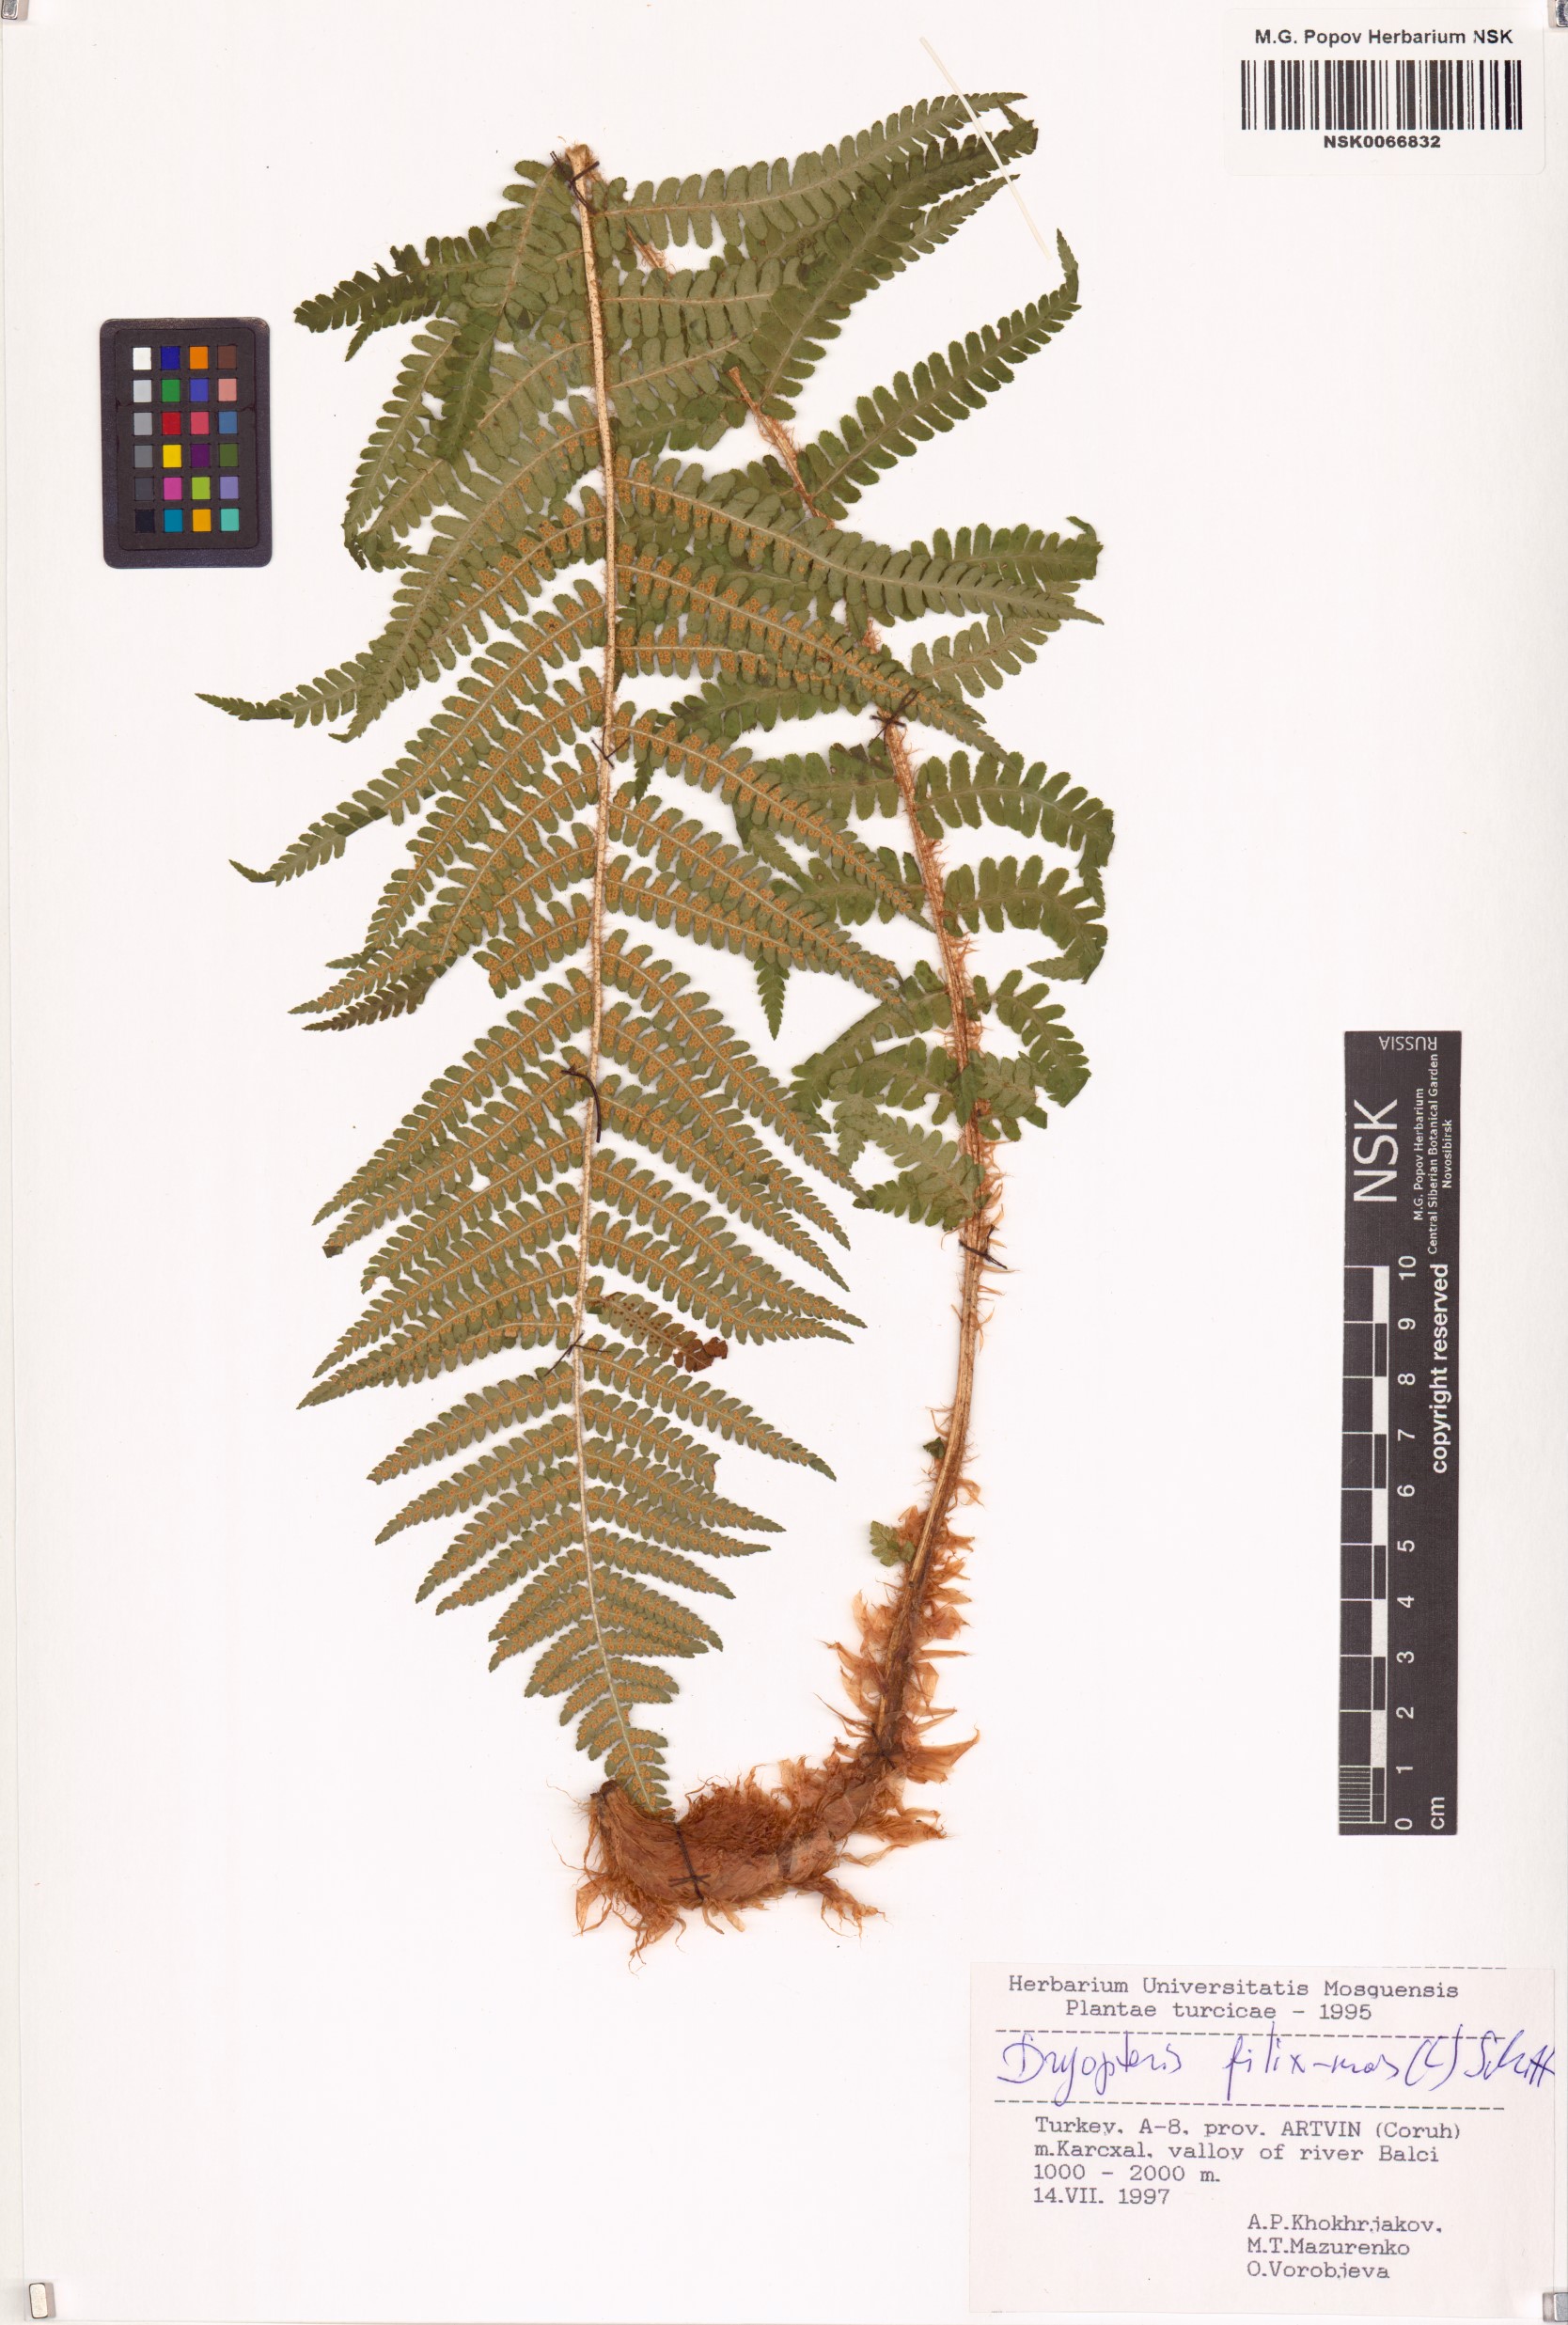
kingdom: Plantae
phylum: Tracheophyta
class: Polypodiopsida
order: Polypodiales
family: Dryopteridaceae
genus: Dryopteris
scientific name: Dryopteris filix-mas
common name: Male fern
